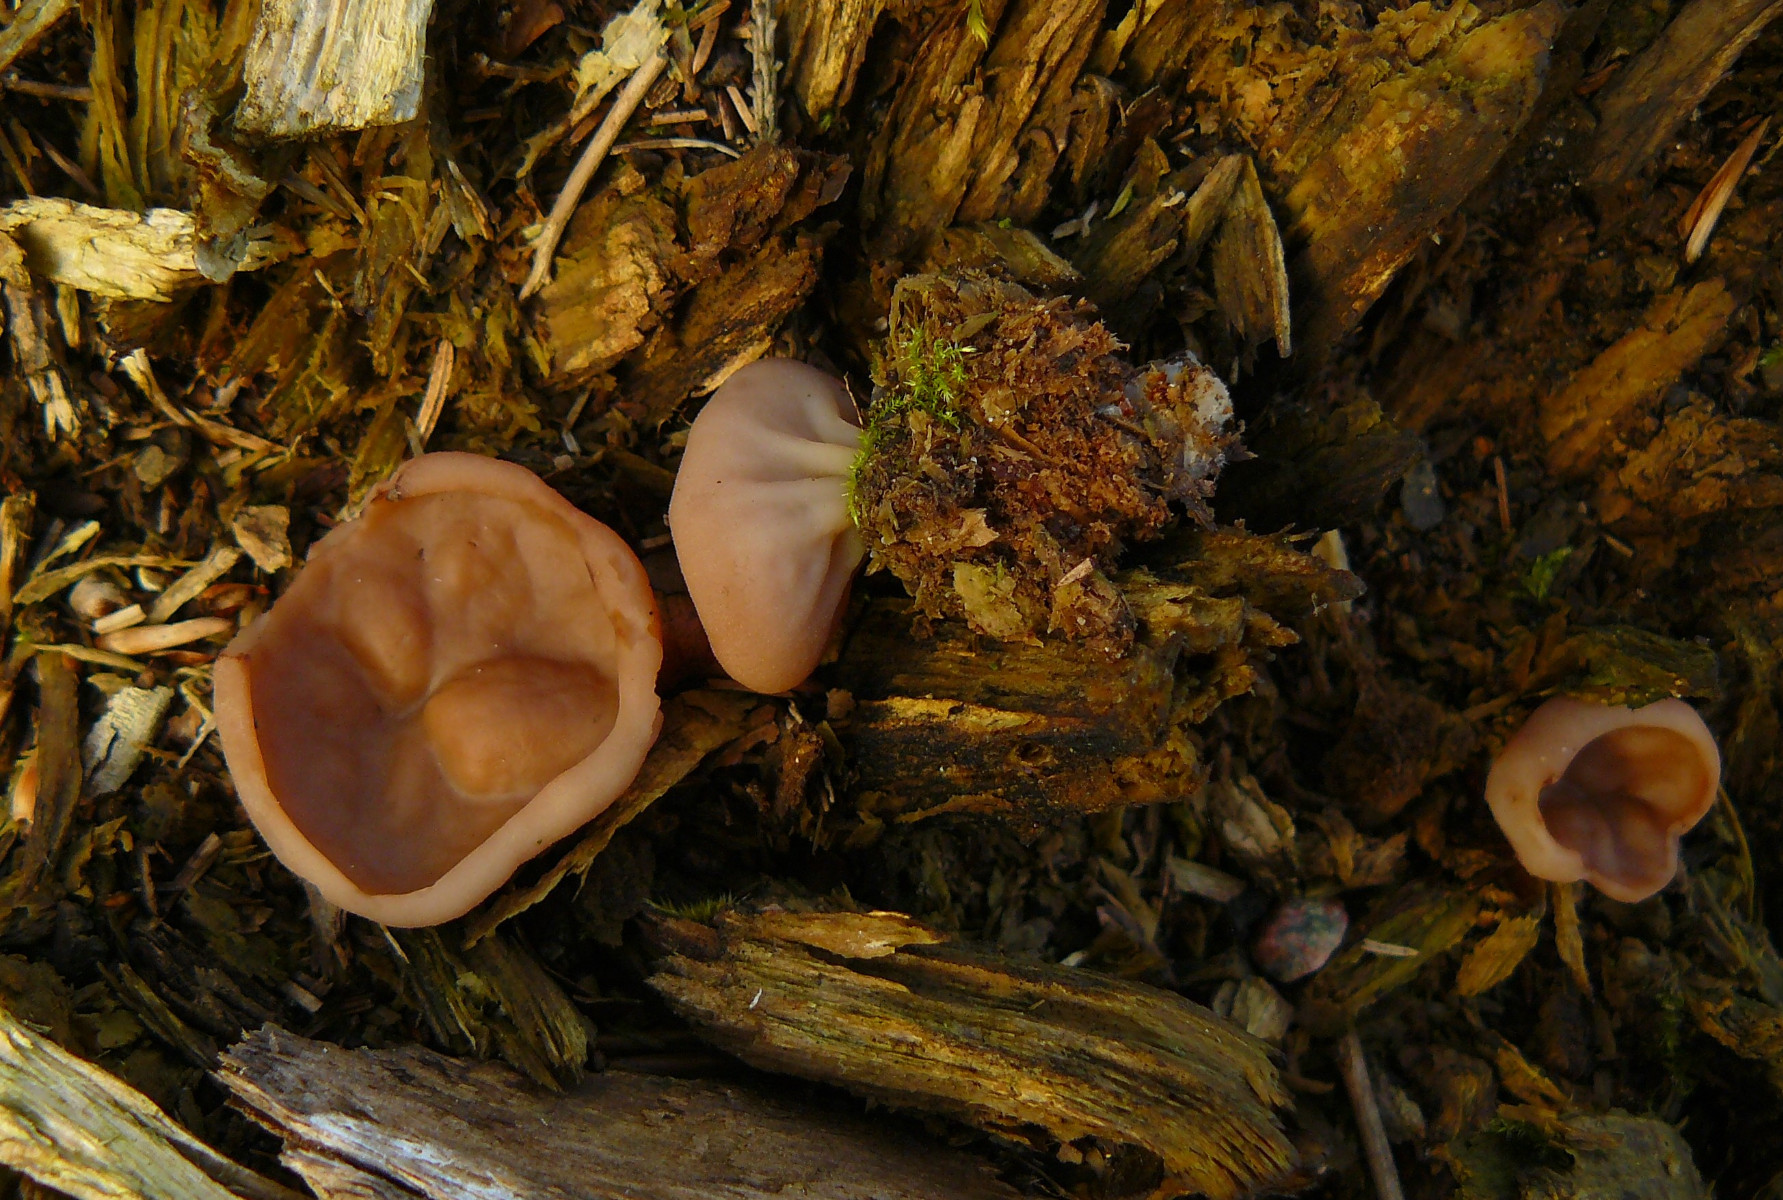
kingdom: Fungi
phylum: Ascomycota
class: Pezizomycetes
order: Pezizales
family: Discinaceae
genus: Discina
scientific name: Discina ancilis
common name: udbredt stenmorkel
